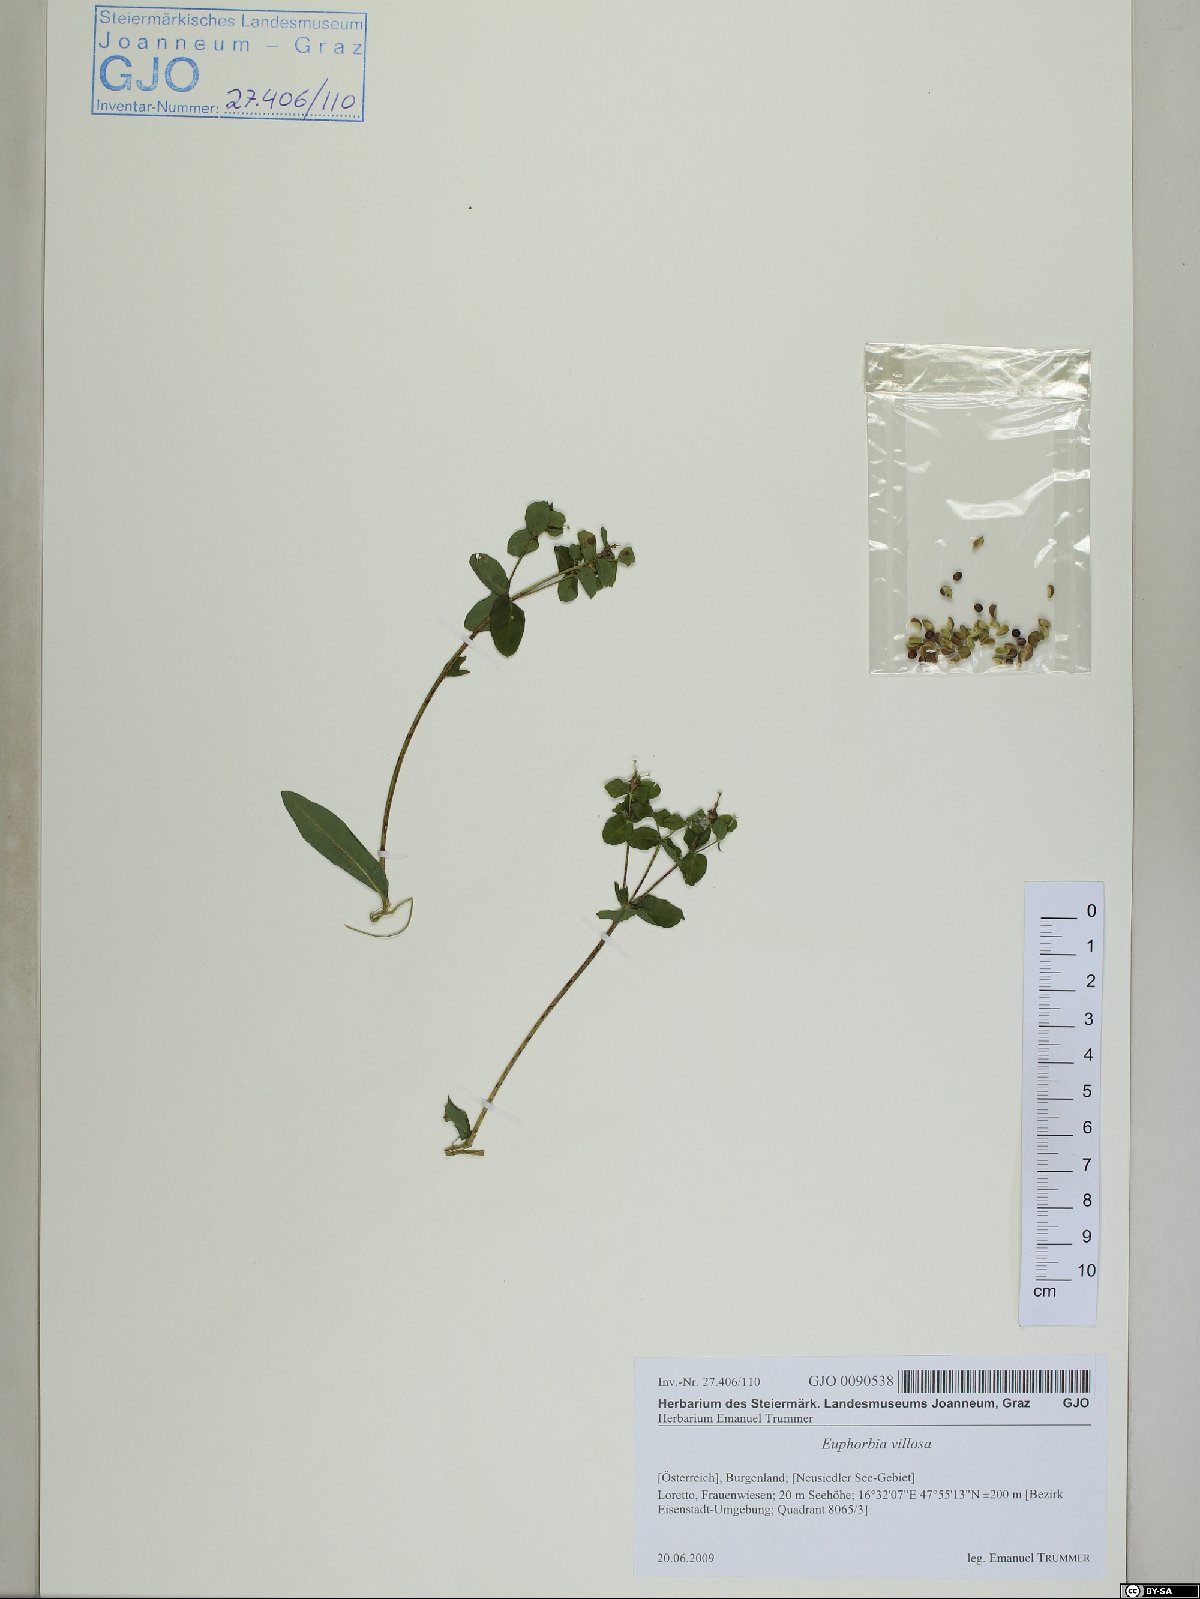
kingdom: Plantae
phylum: Tracheophyta
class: Magnoliopsida
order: Malpighiales
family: Euphorbiaceae
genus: Euphorbia
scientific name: Euphorbia illirica
